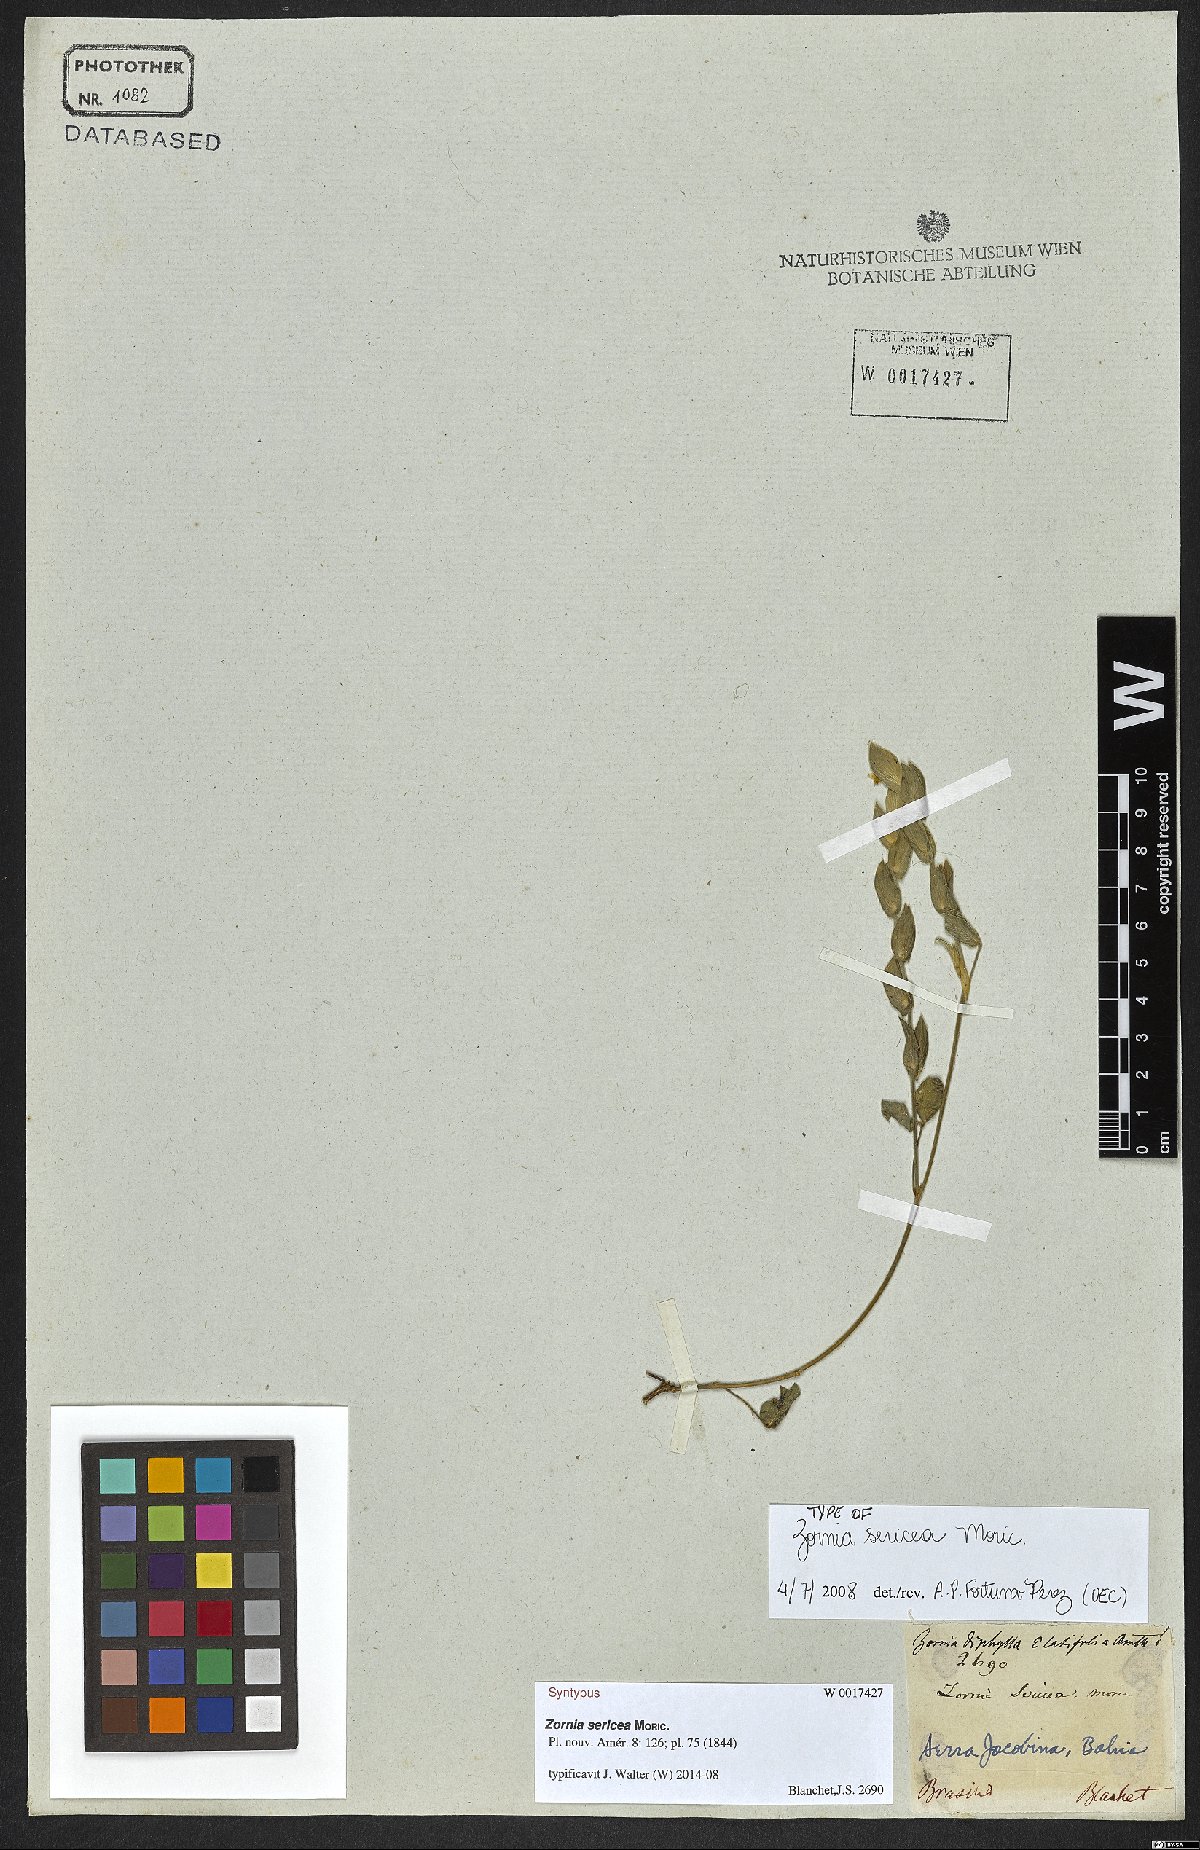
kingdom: Plantae
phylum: Tracheophyta
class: Magnoliopsida
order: Fabales
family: Fabaceae
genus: Zornia
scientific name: Zornia sericea
